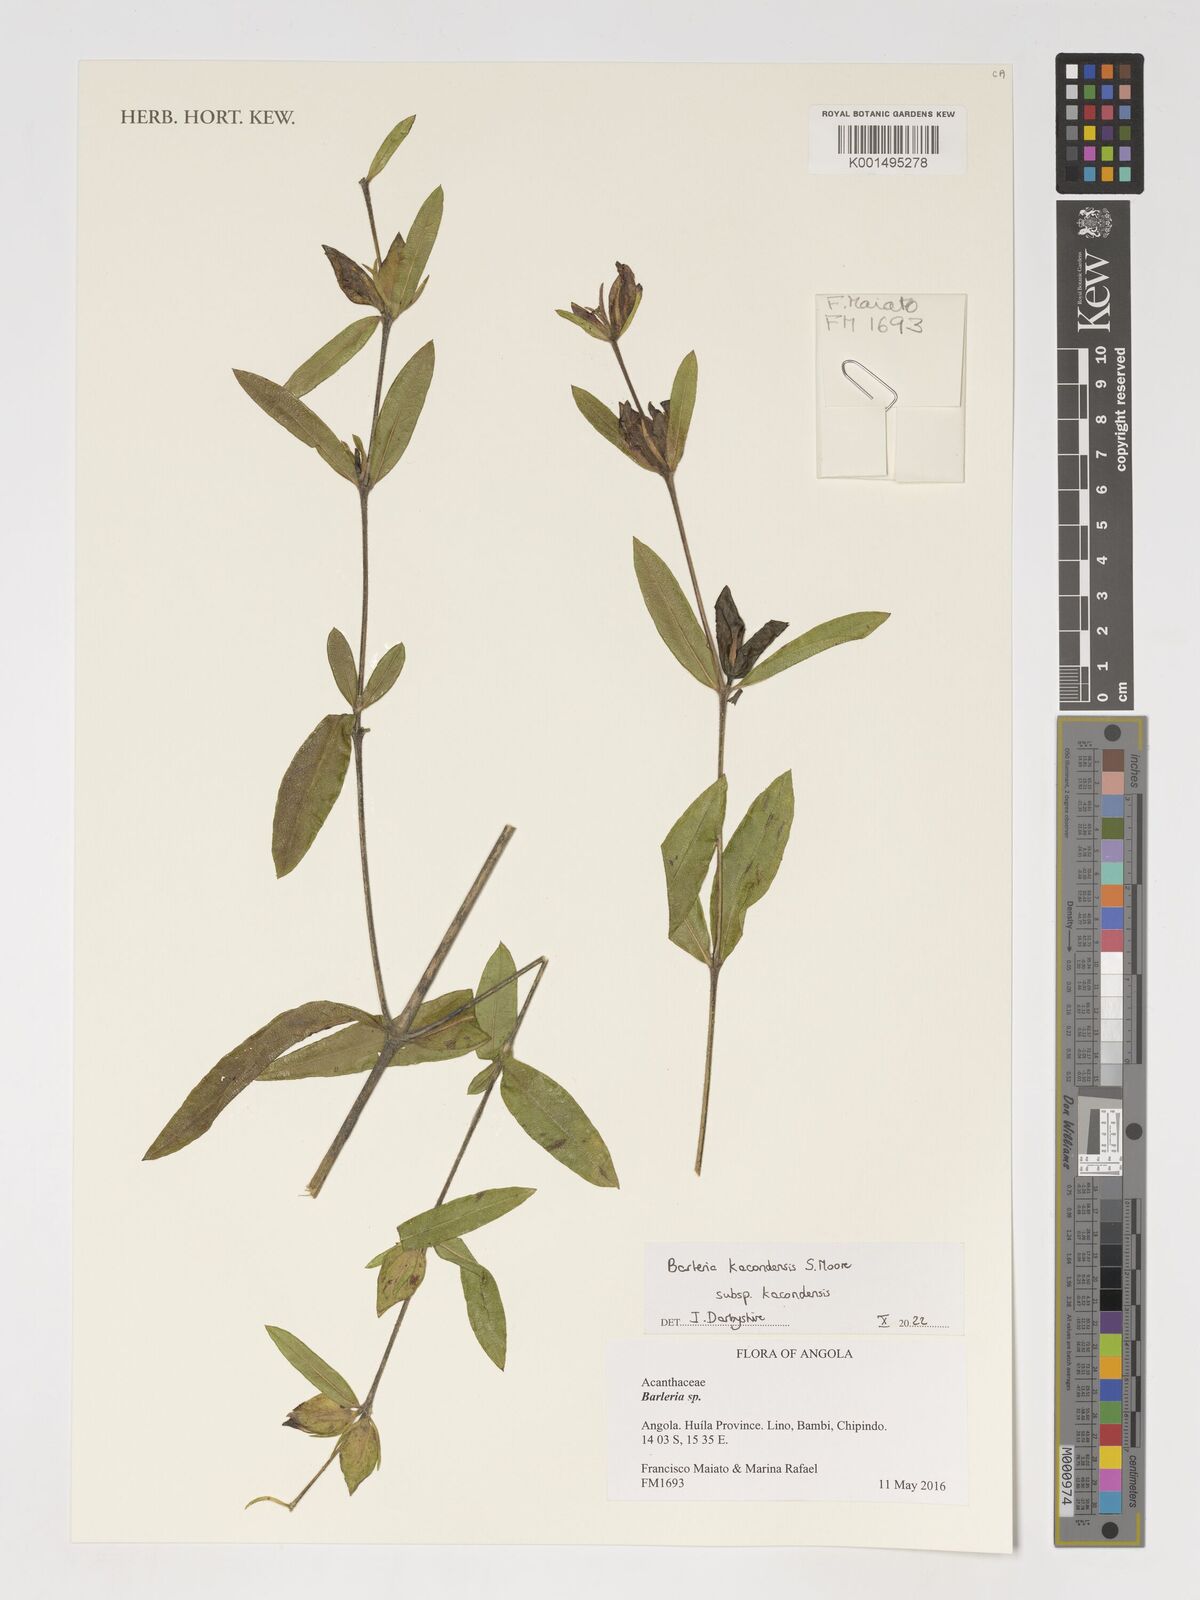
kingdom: Plantae
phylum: Tracheophyta
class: Magnoliopsida
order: Lamiales
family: Acanthaceae
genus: Barleria
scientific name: Barleria kacondensis
